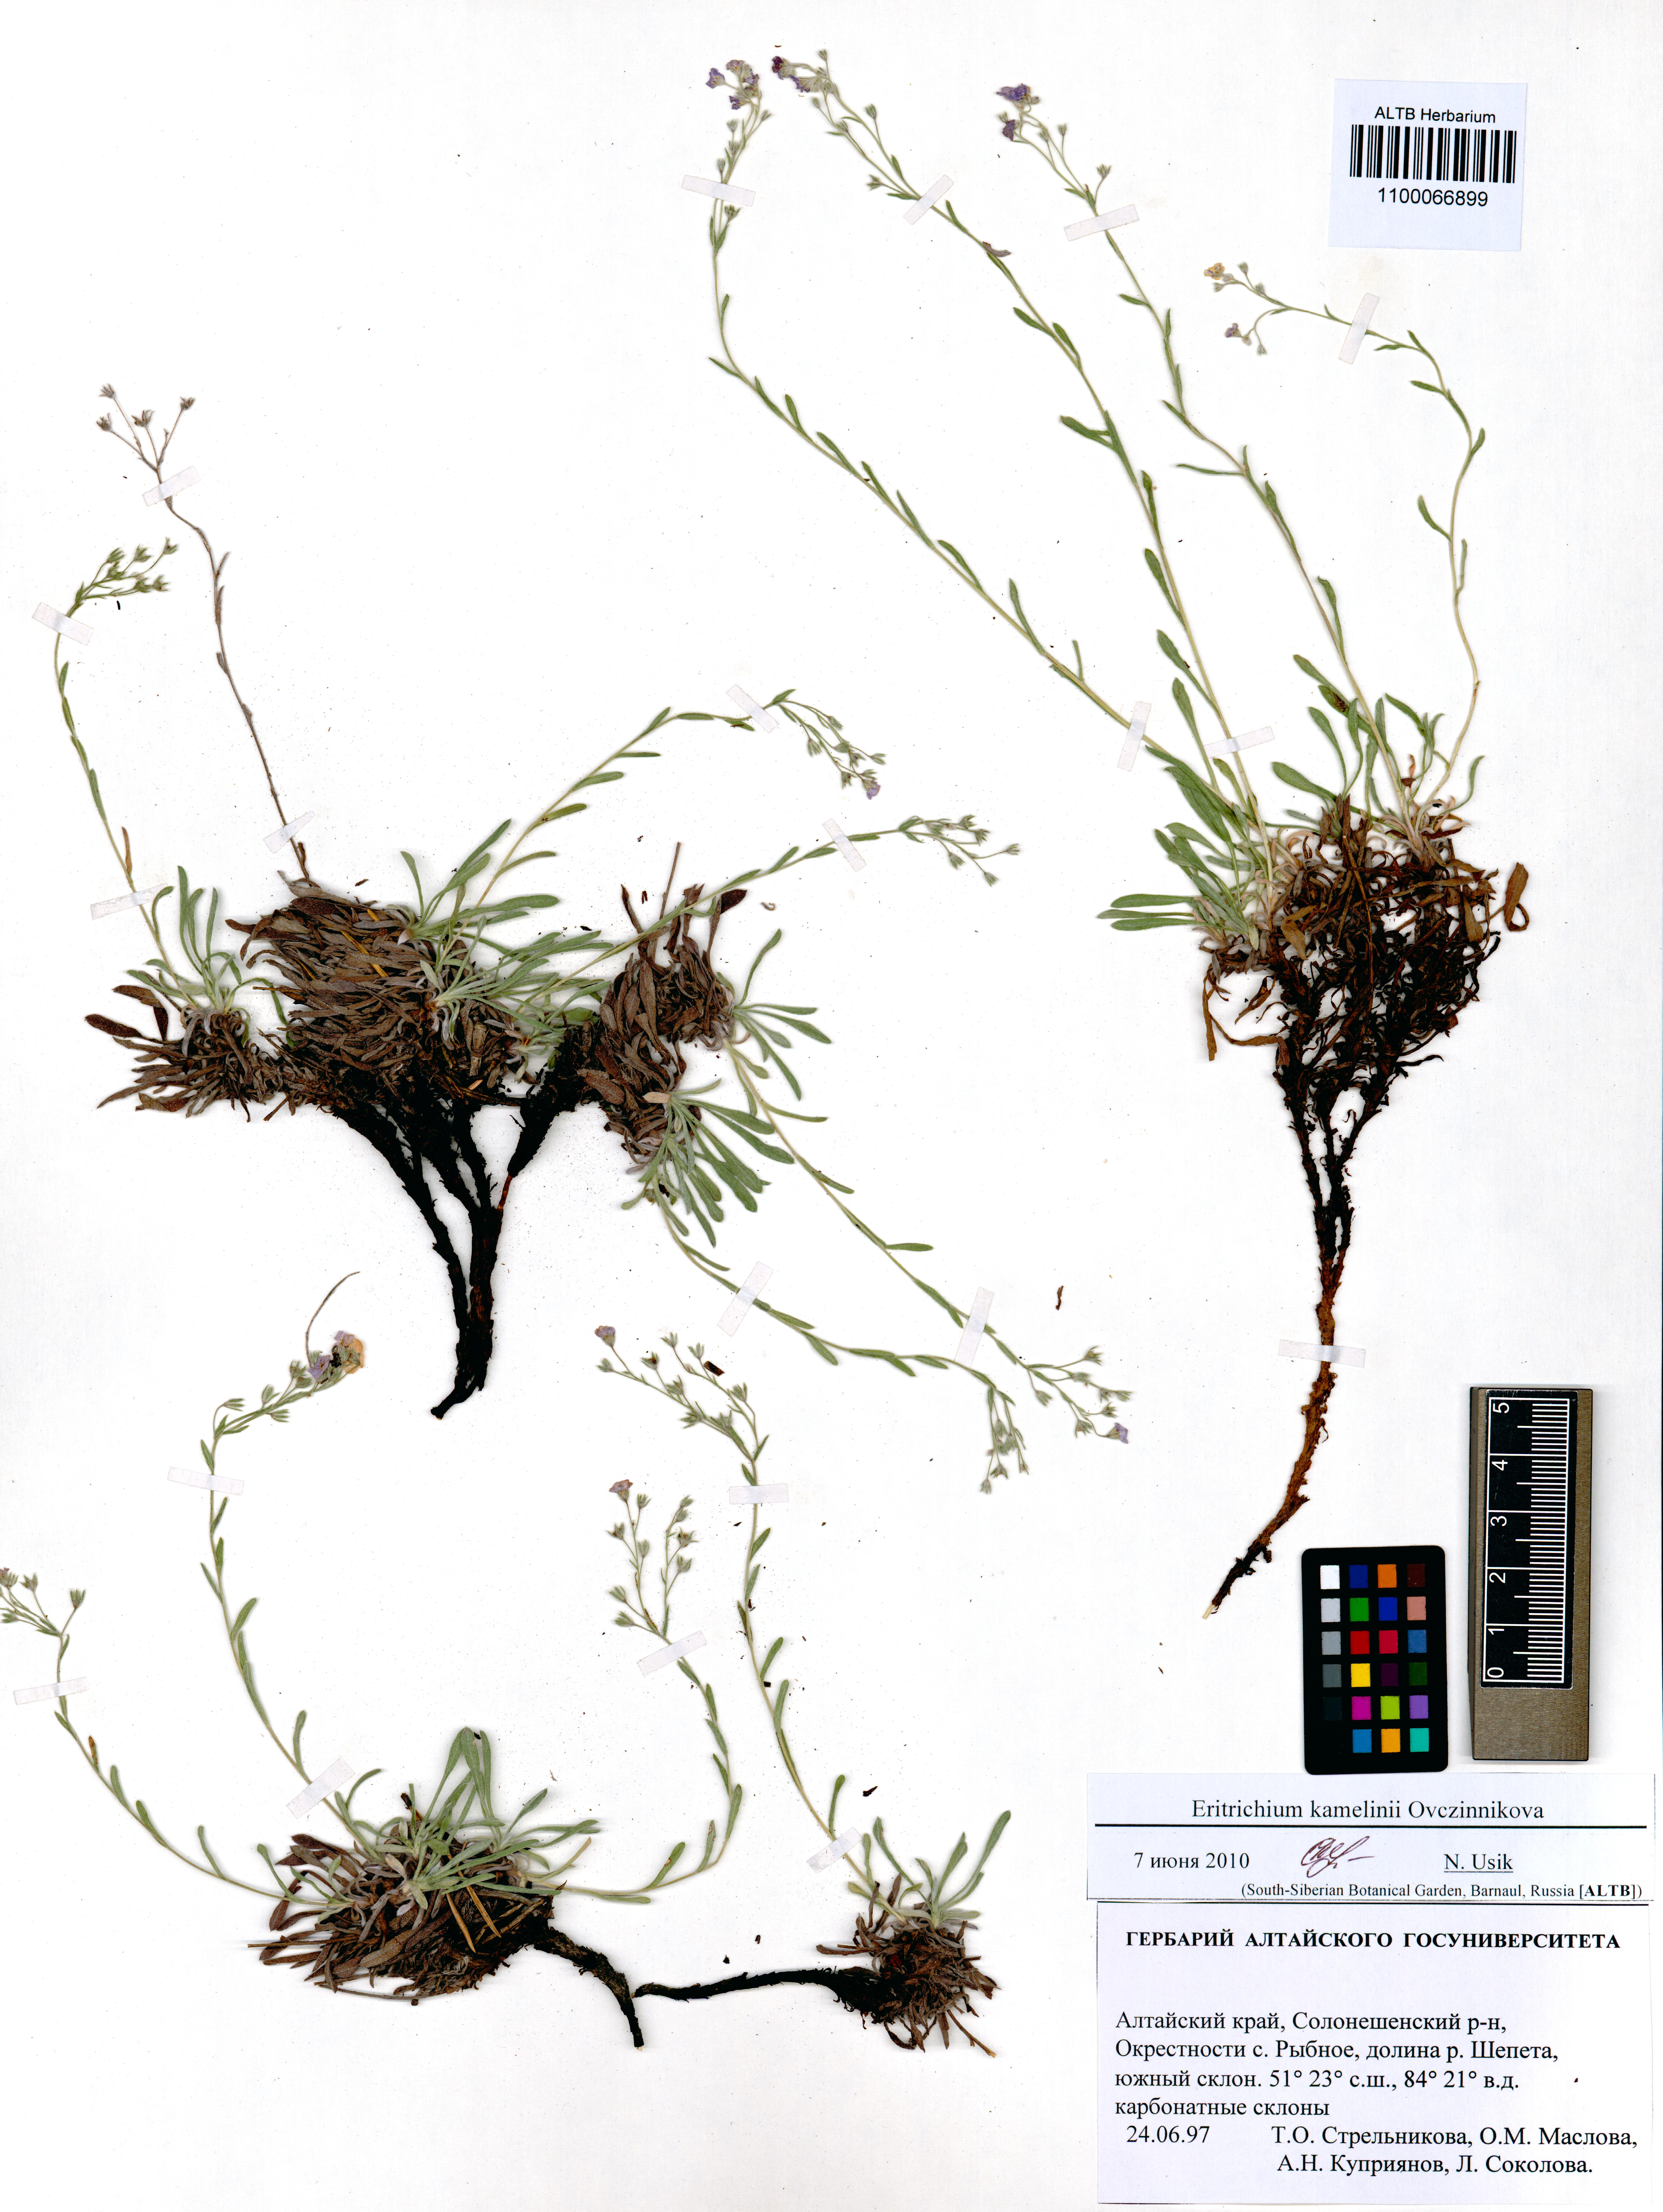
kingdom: Plantae
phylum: Tracheophyta
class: Magnoliopsida
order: Boraginales
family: Boraginaceae
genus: Eritrichium
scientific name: Eritrichium kamelinii
